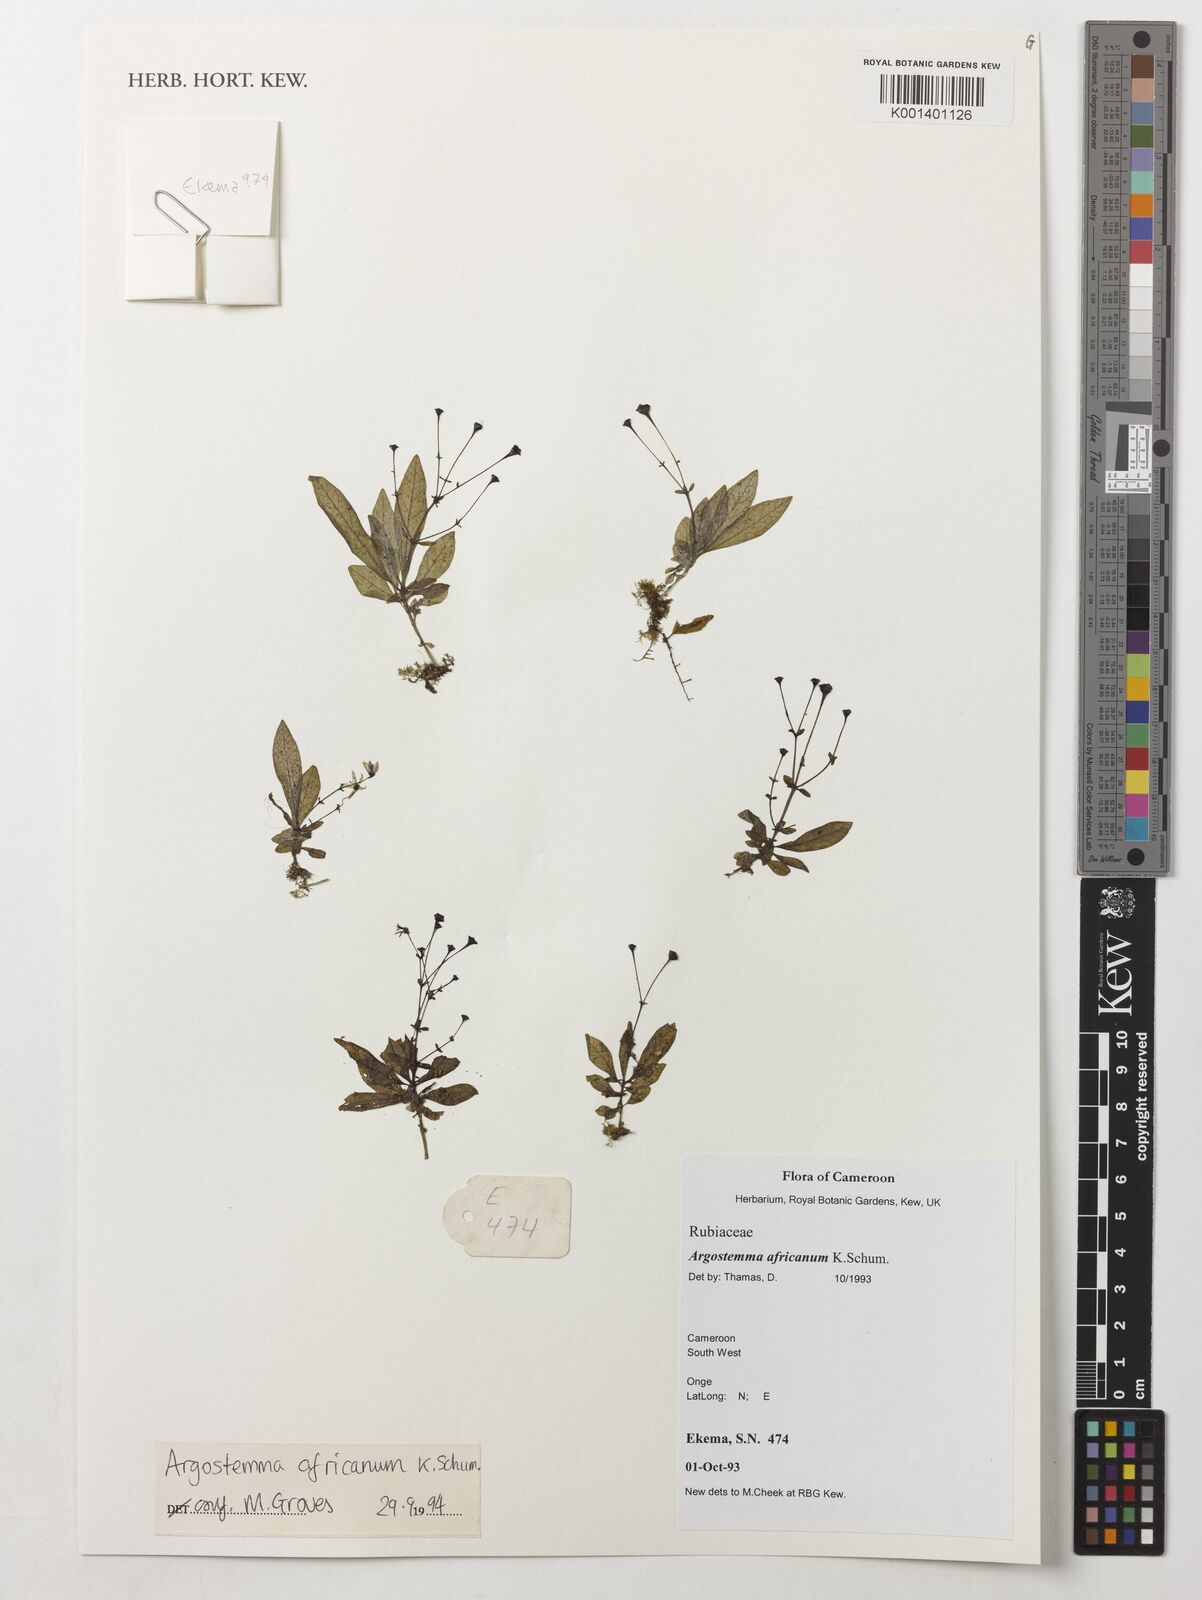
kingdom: Plantae
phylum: Tracheophyta
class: Magnoliopsida
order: Gentianales
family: Rubiaceae
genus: Argostemma
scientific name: Argostemma africanum
